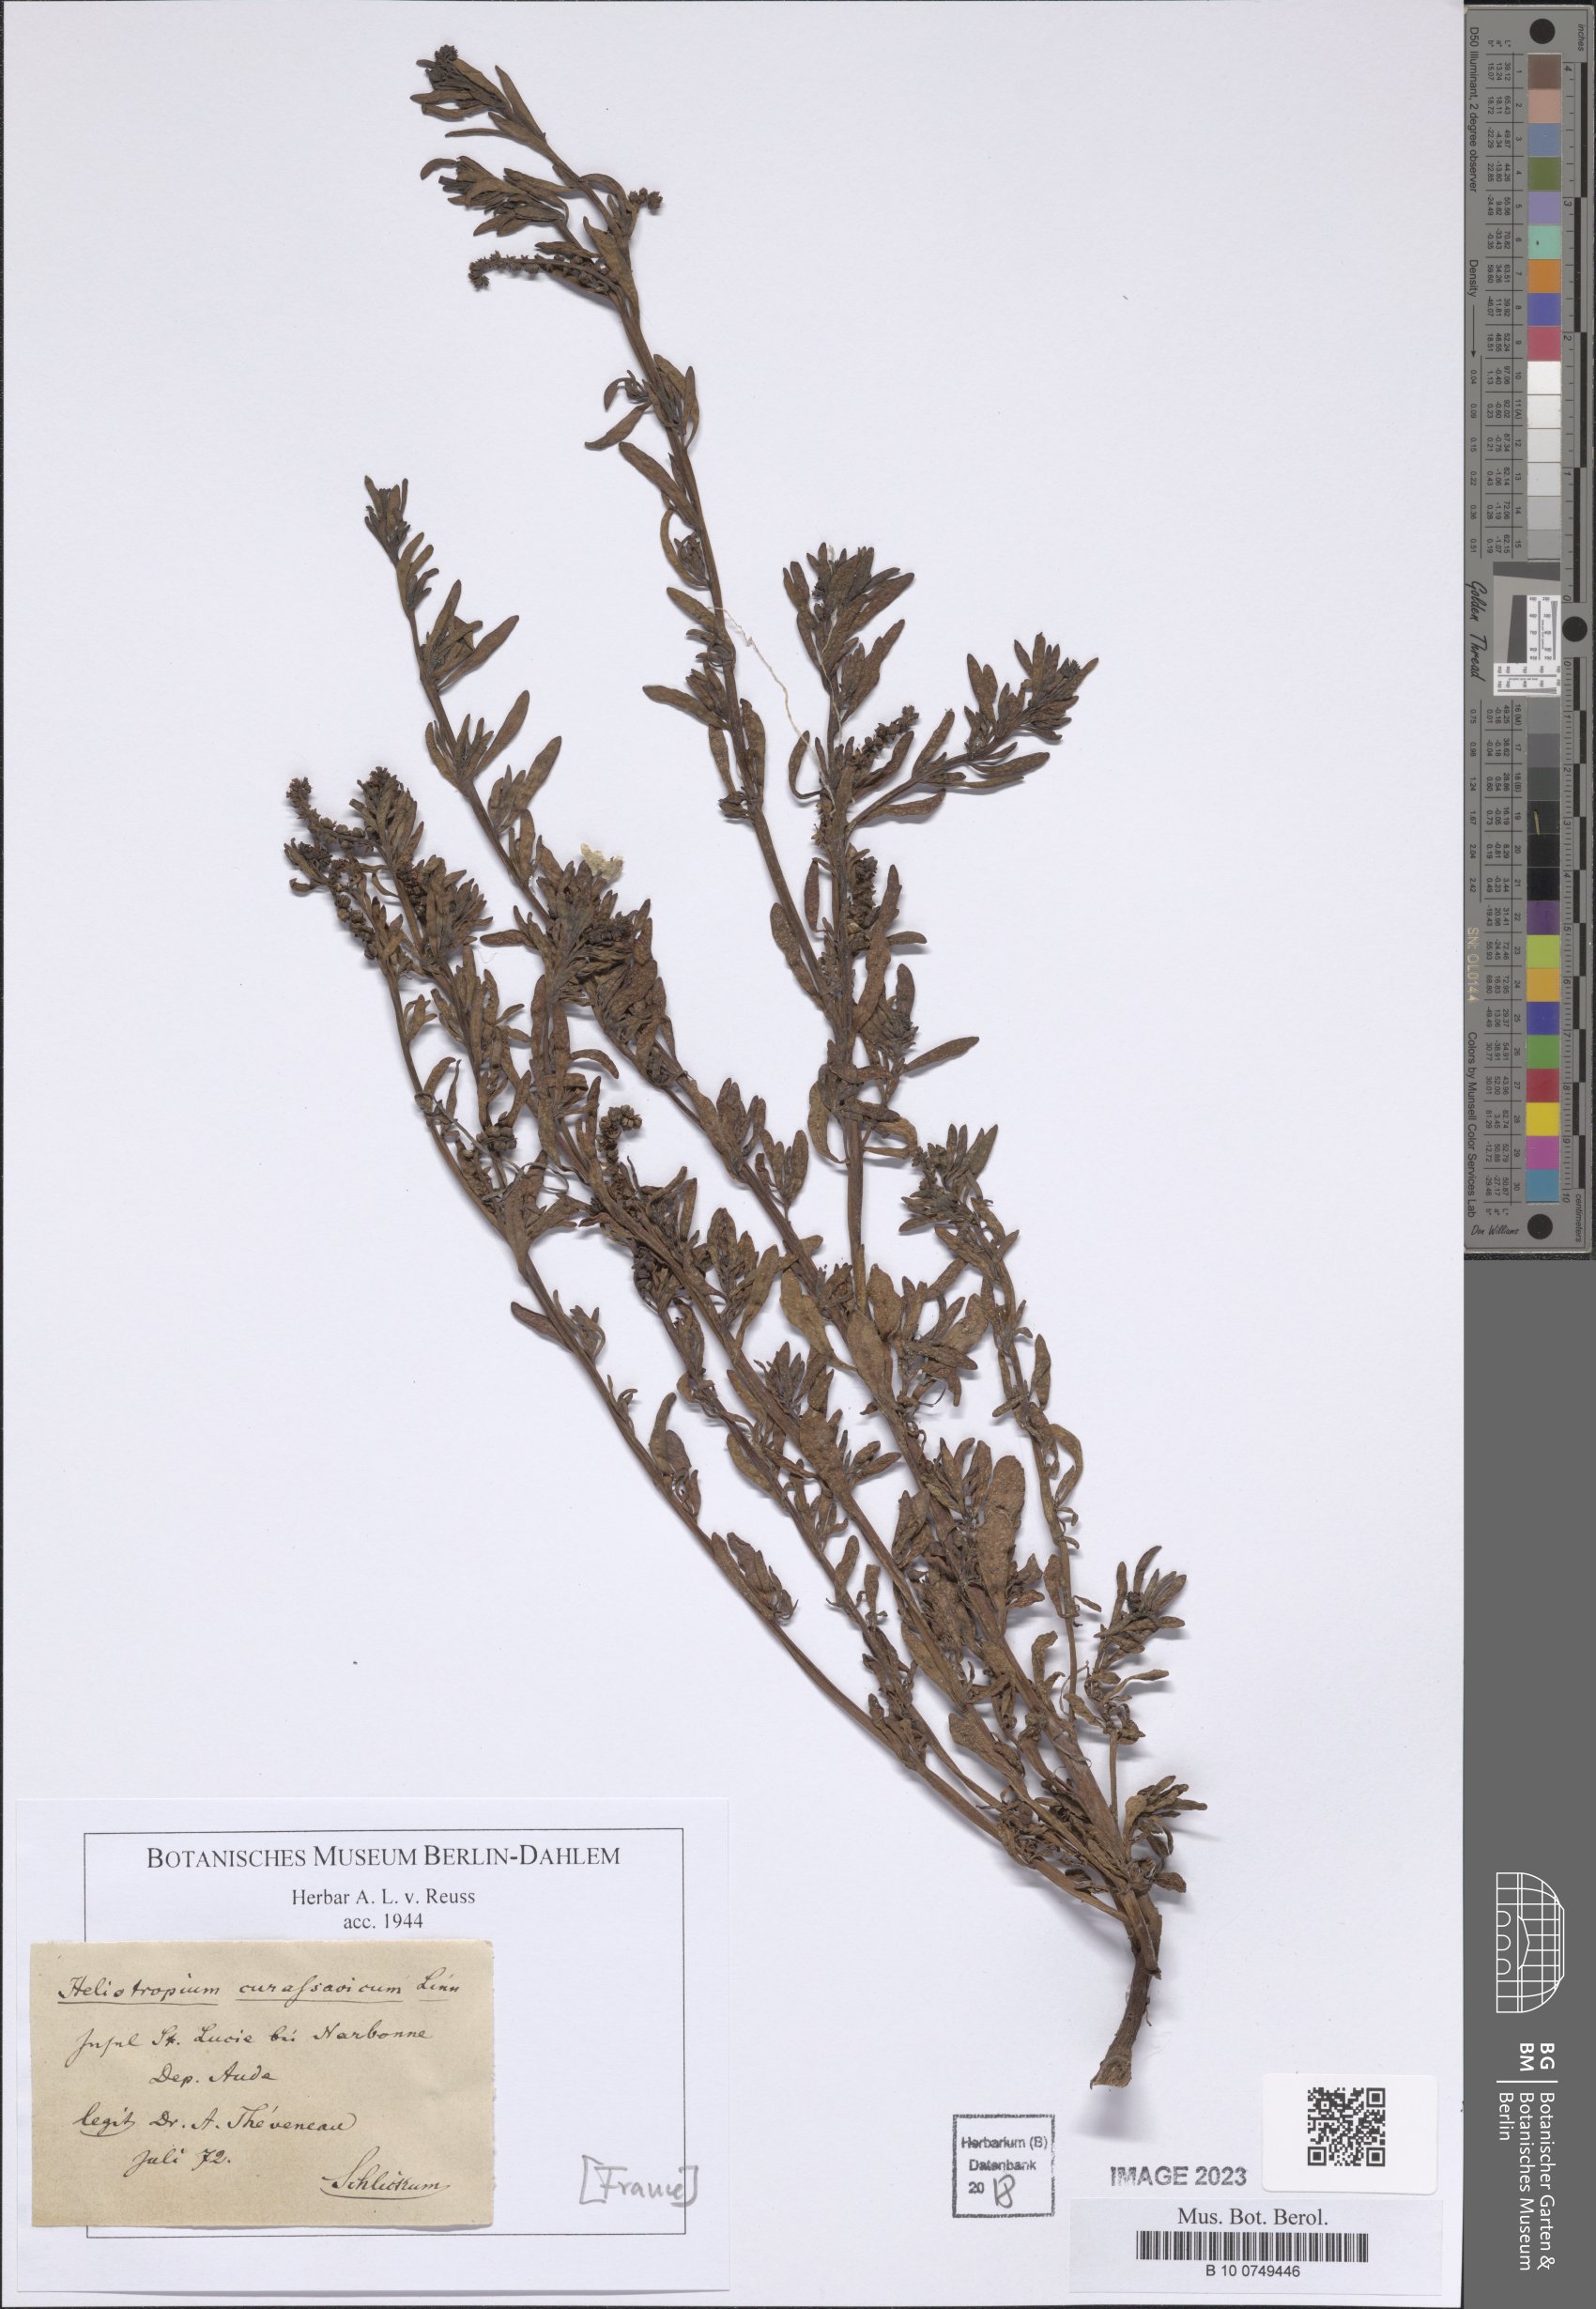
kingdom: Plantae
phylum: Tracheophyta
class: Magnoliopsida
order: Boraginales
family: Heliotropiaceae
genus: Heliotropium
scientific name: Heliotropium curassavicum
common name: Seaside heliotrope
